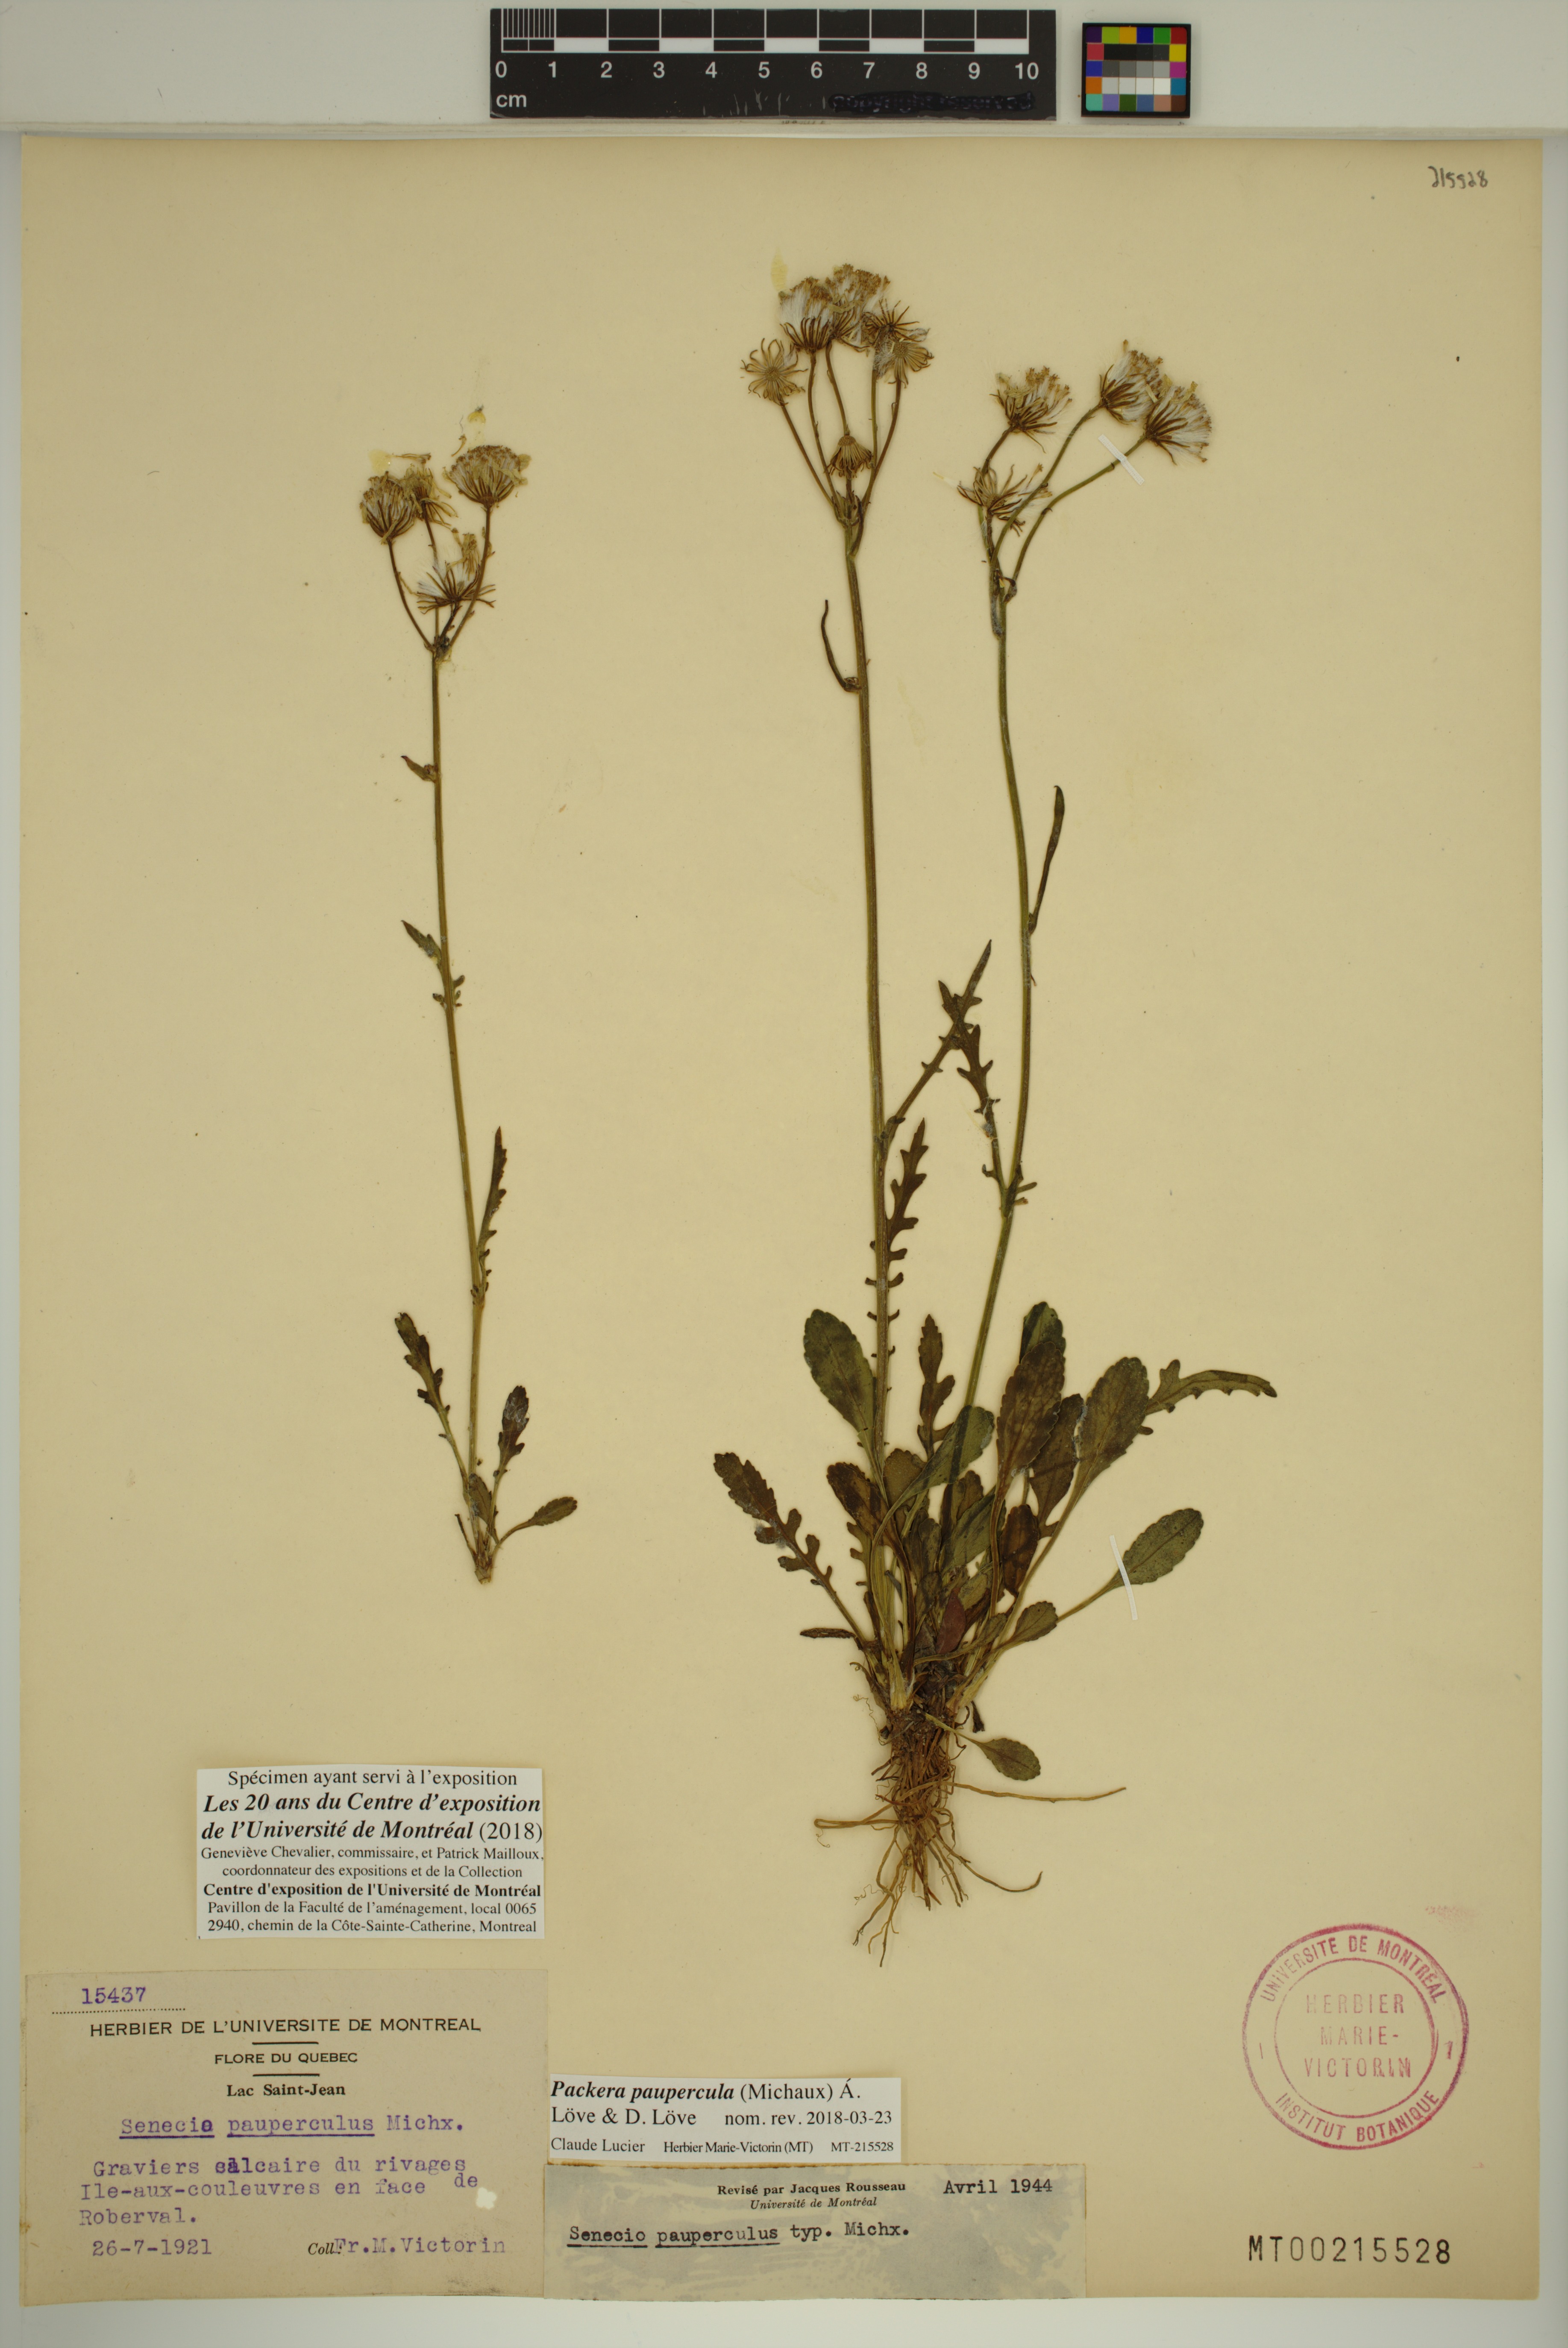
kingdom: Plantae
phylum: Tracheophyta
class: Magnoliopsida
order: Asterales
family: Asteraceae
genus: Packera
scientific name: Packera paupercula
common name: Balsam groundsel
